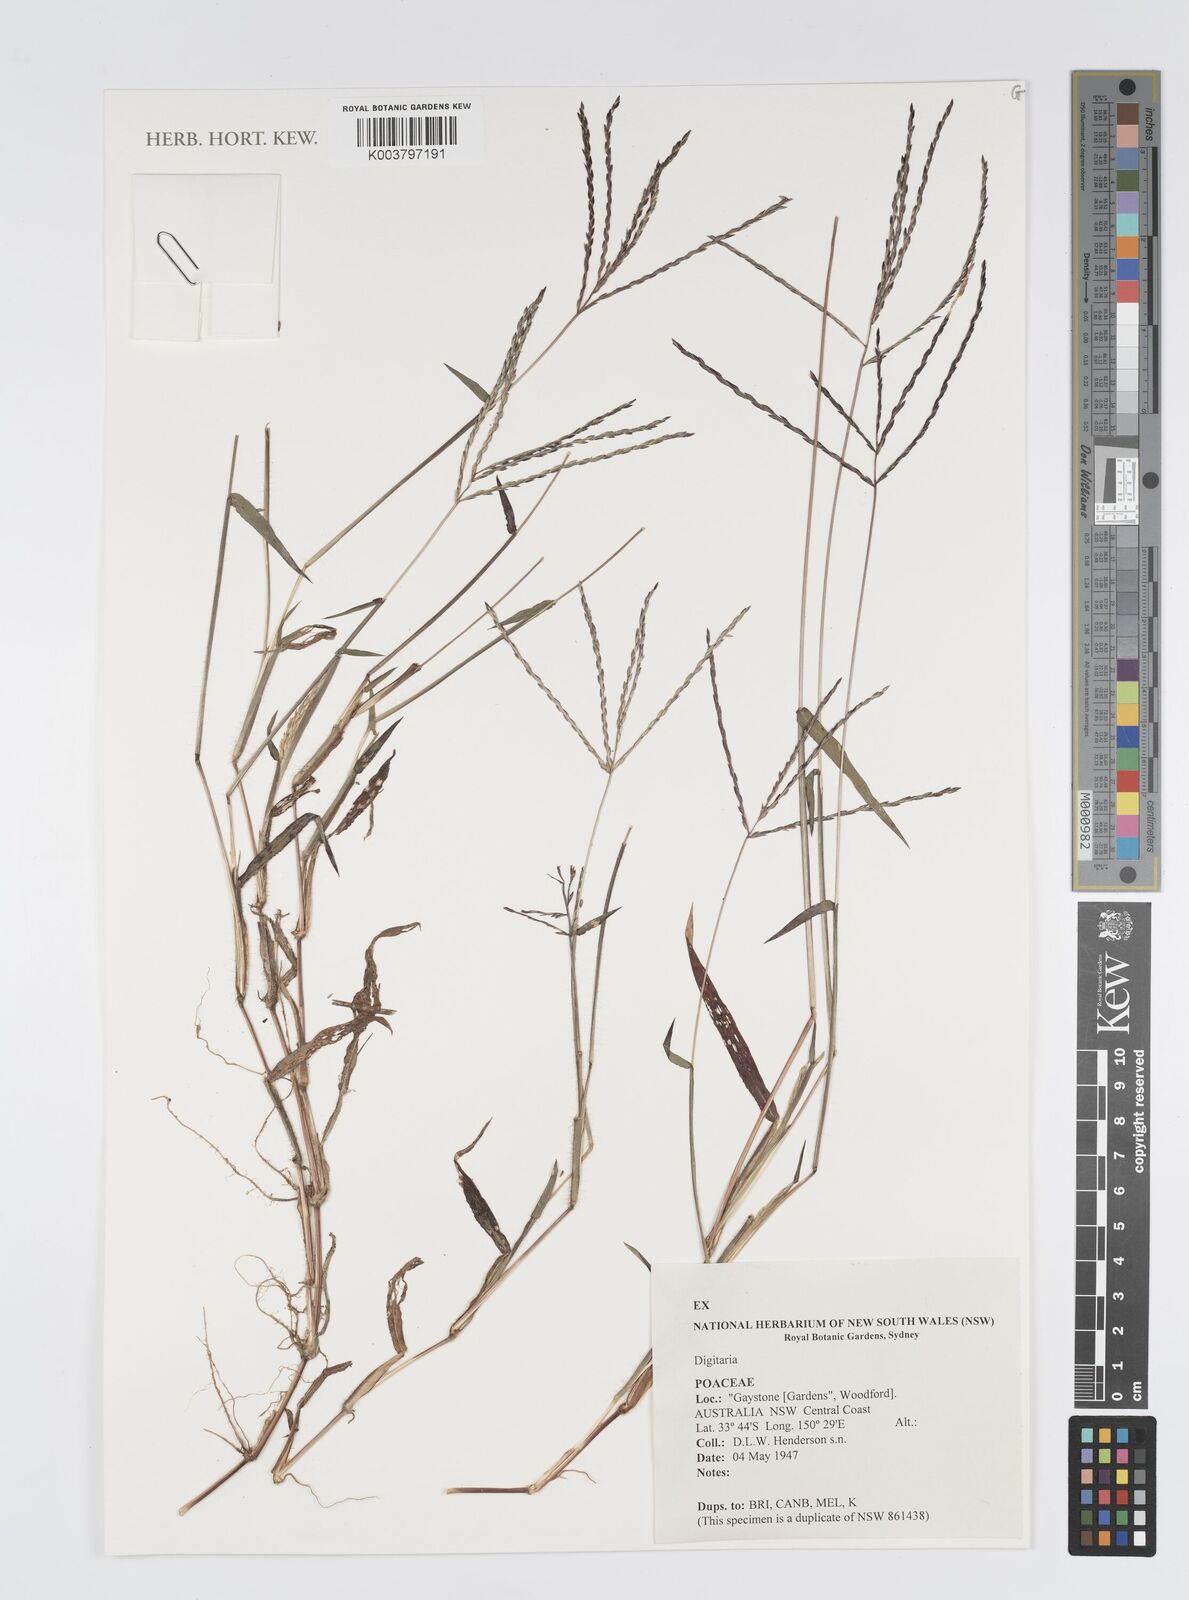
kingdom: Plantae
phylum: Tracheophyta
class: Liliopsida
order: Poales
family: Poaceae
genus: Digitaria
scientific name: Digitaria spec
